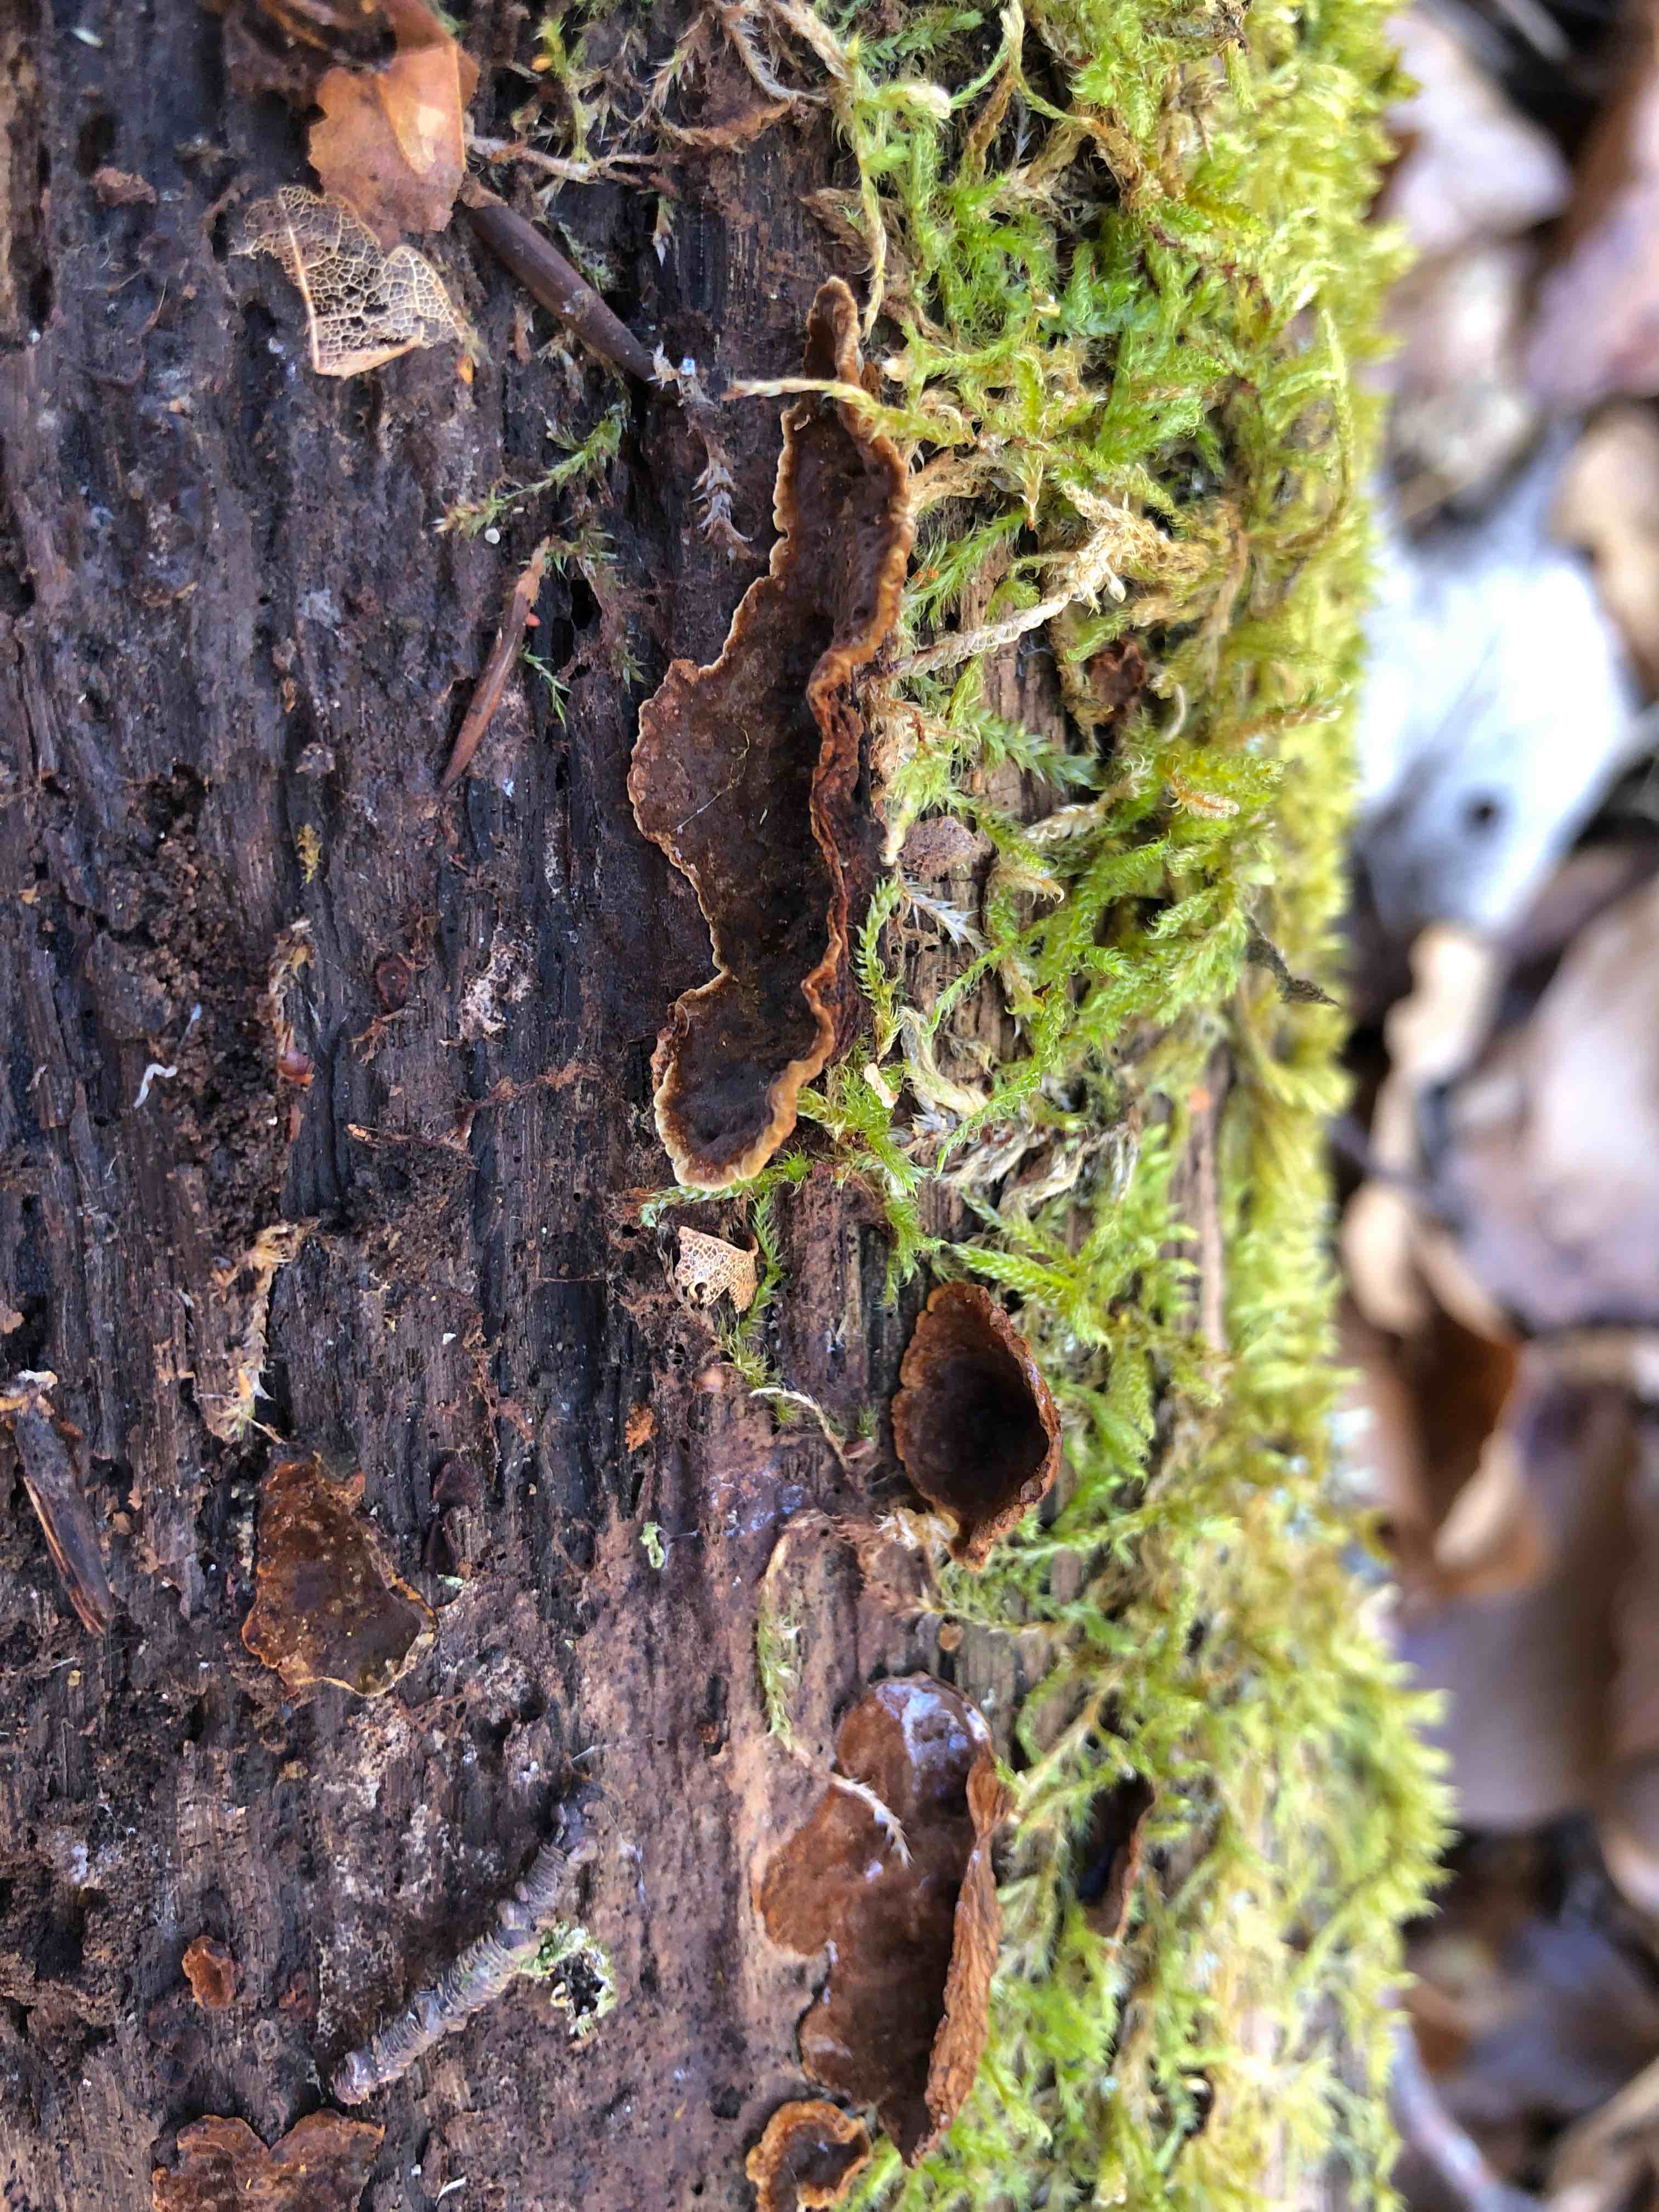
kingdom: Fungi
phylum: Basidiomycota
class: Agaricomycetes
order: Hymenochaetales
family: Hymenochaetaceae
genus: Hymenochaete
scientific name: Hymenochaete rubiginosa
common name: stiv ruslædersvamp
